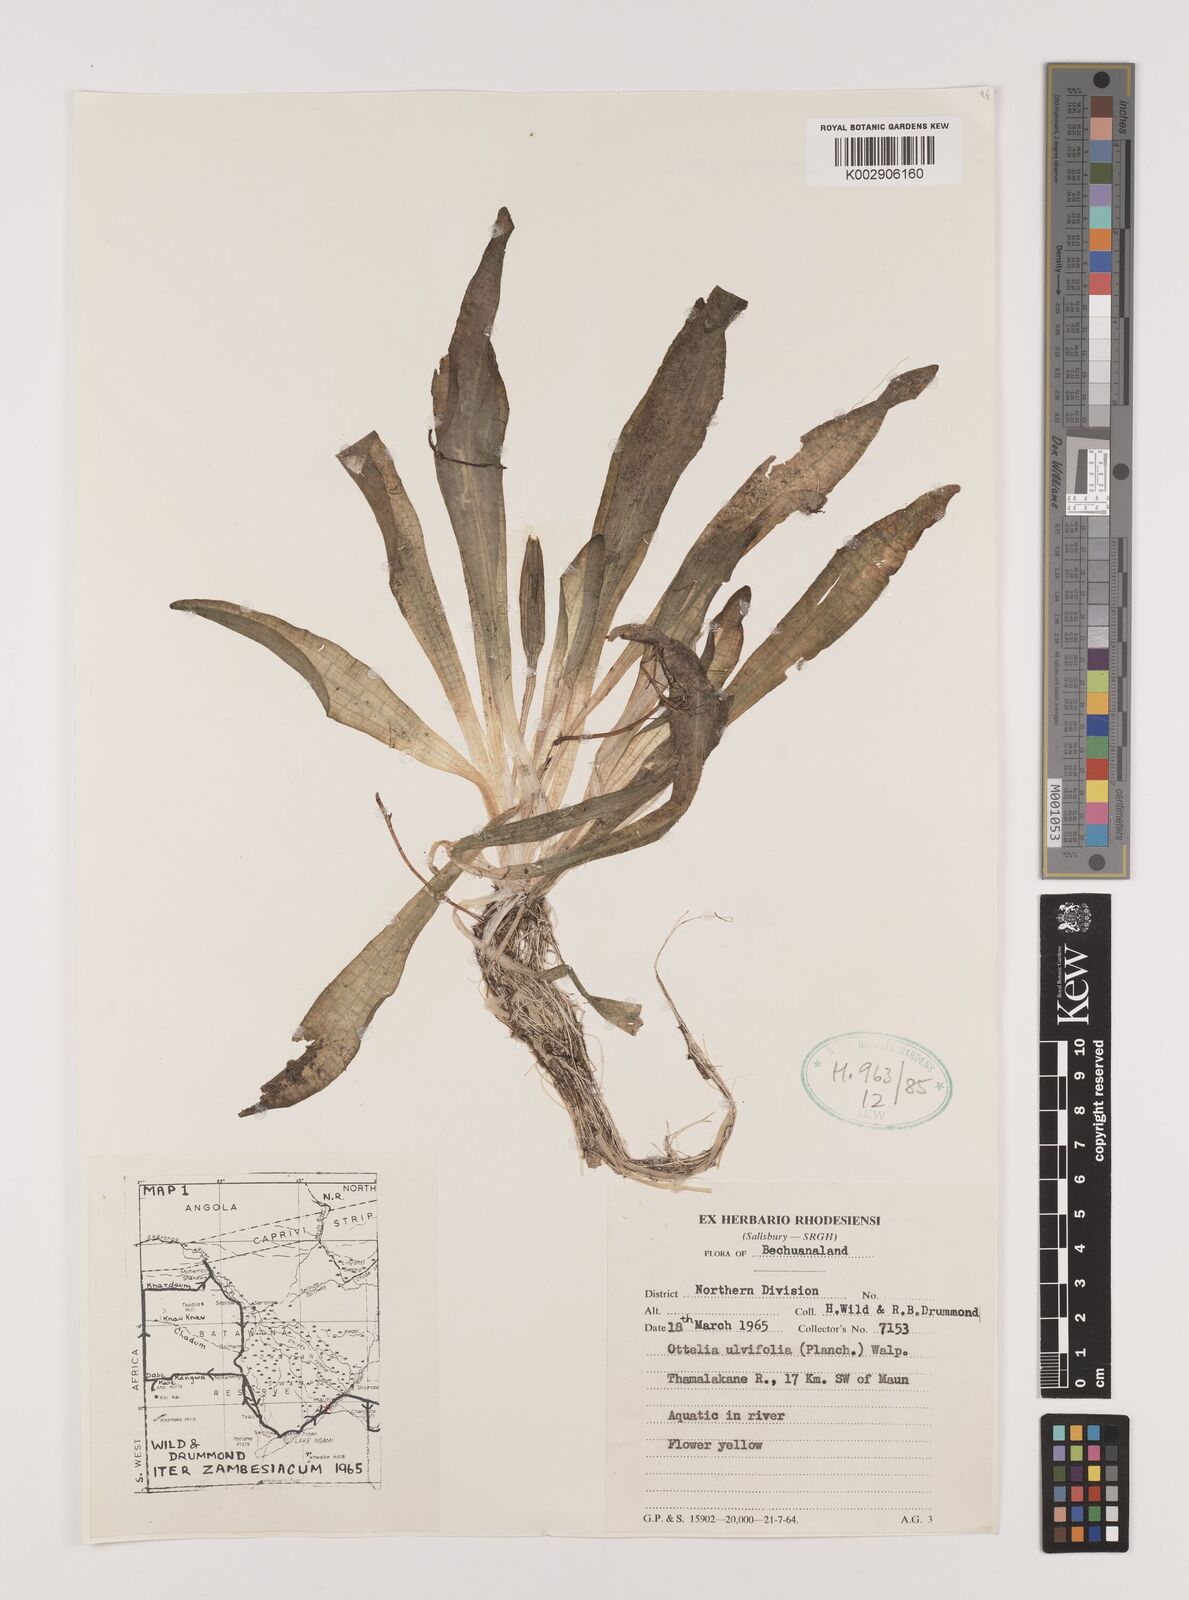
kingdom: Plantae
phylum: Tracheophyta
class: Liliopsida
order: Alismatales
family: Hydrocharitaceae
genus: Ottelia
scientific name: Ottelia ulvifolia
